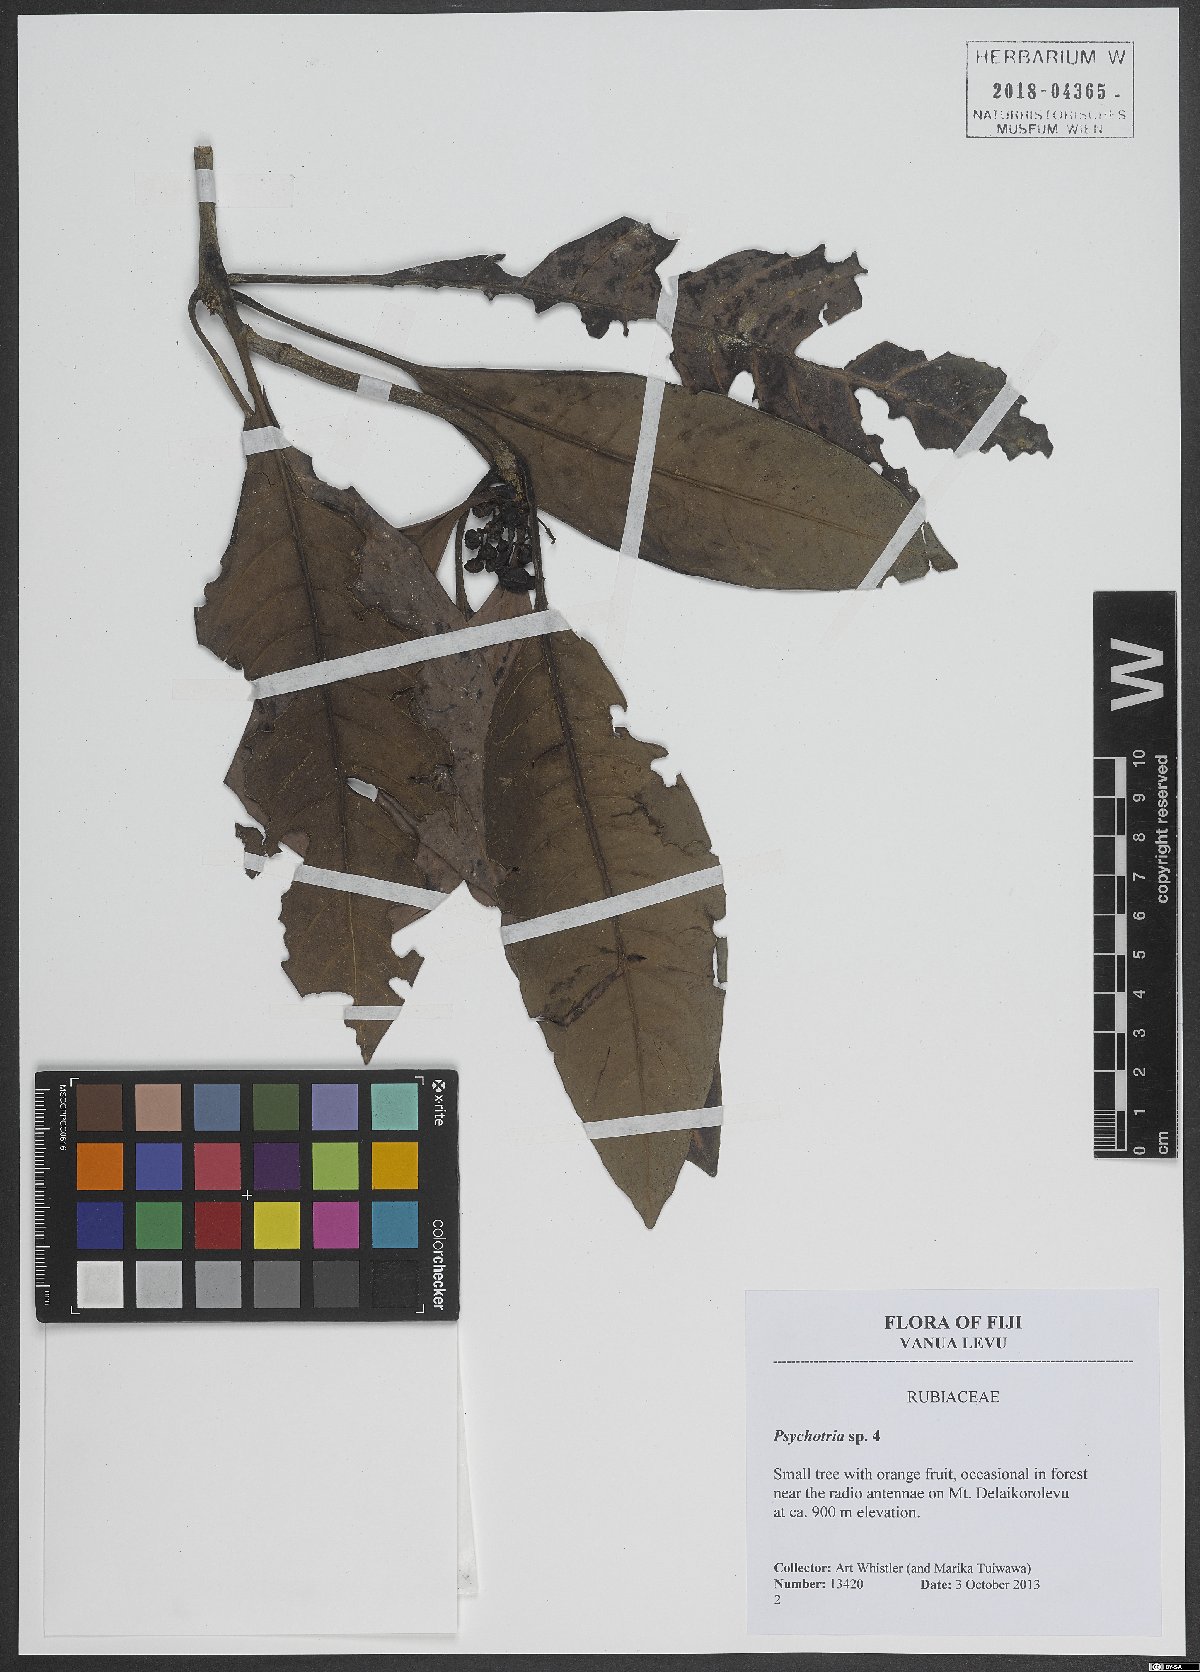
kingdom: Plantae
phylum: Tracheophyta
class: Magnoliopsida
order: Gentianales
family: Rubiaceae
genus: Psychotria
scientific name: Psychotria
